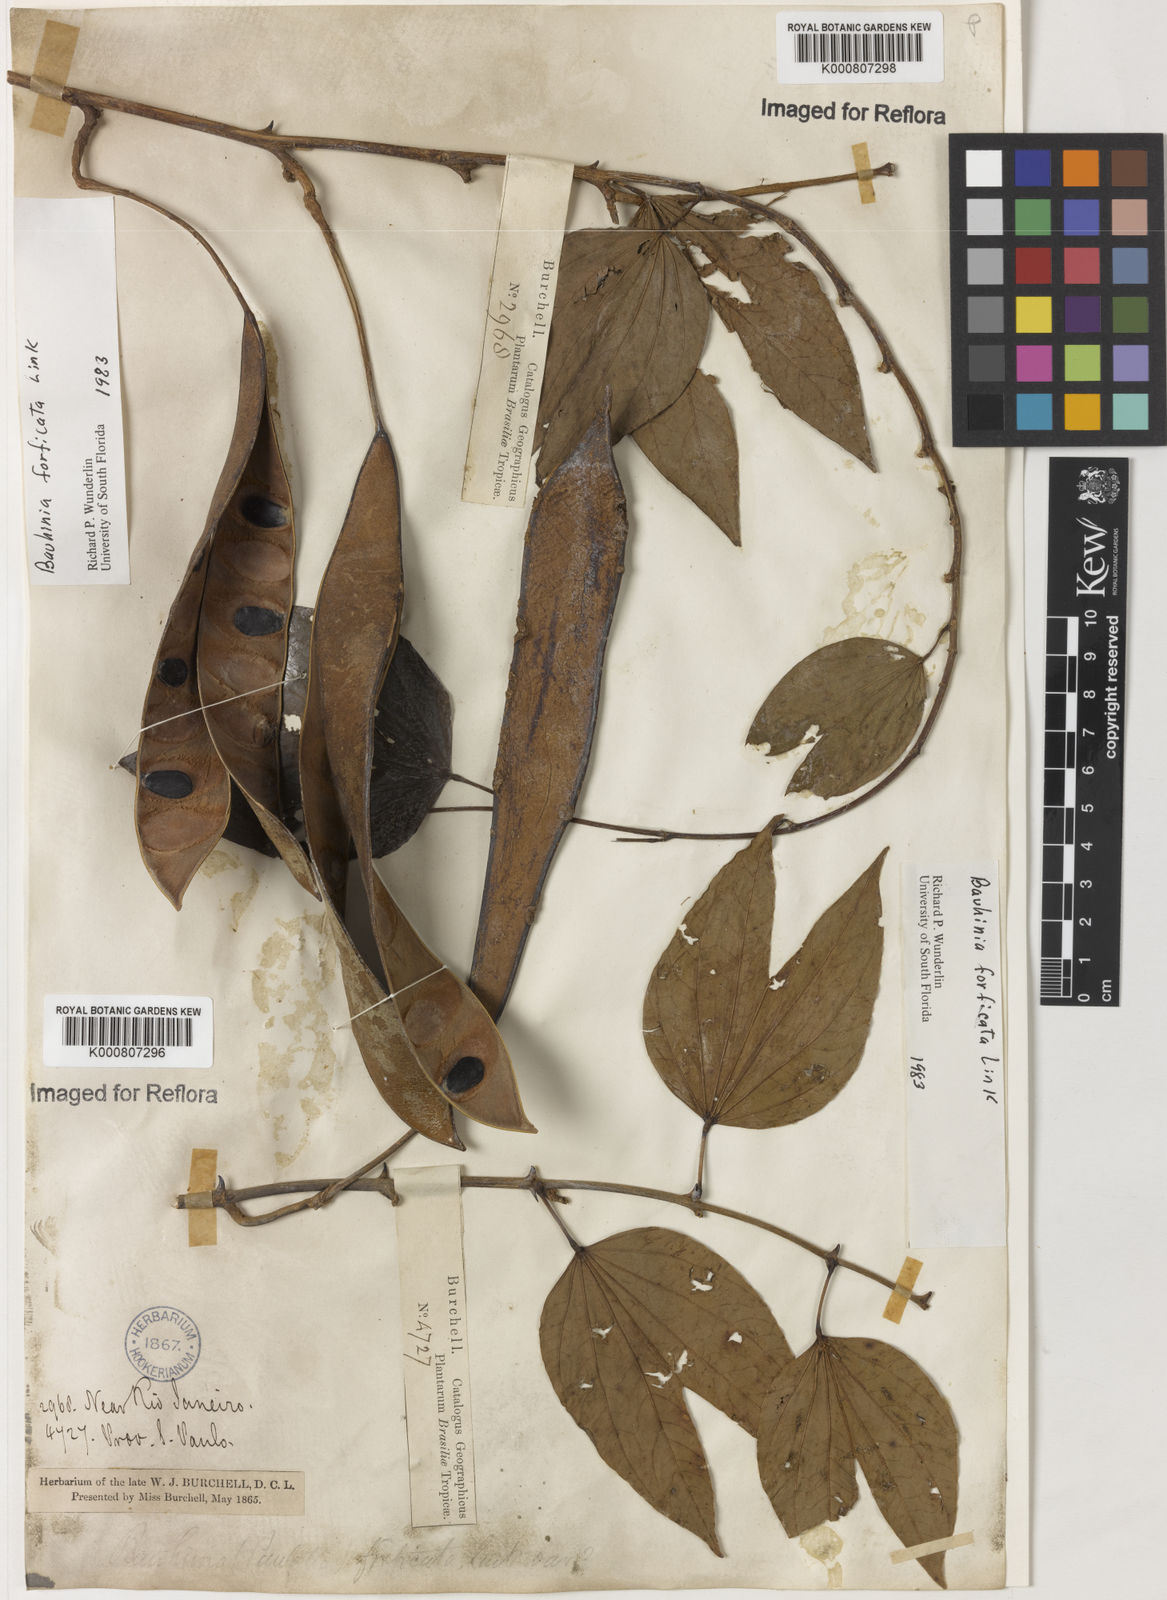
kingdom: Plantae
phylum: Tracheophyta
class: Magnoliopsida
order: Fabales
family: Fabaceae
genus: Bauhinia
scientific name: Bauhinia forficata
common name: Orchid tree
